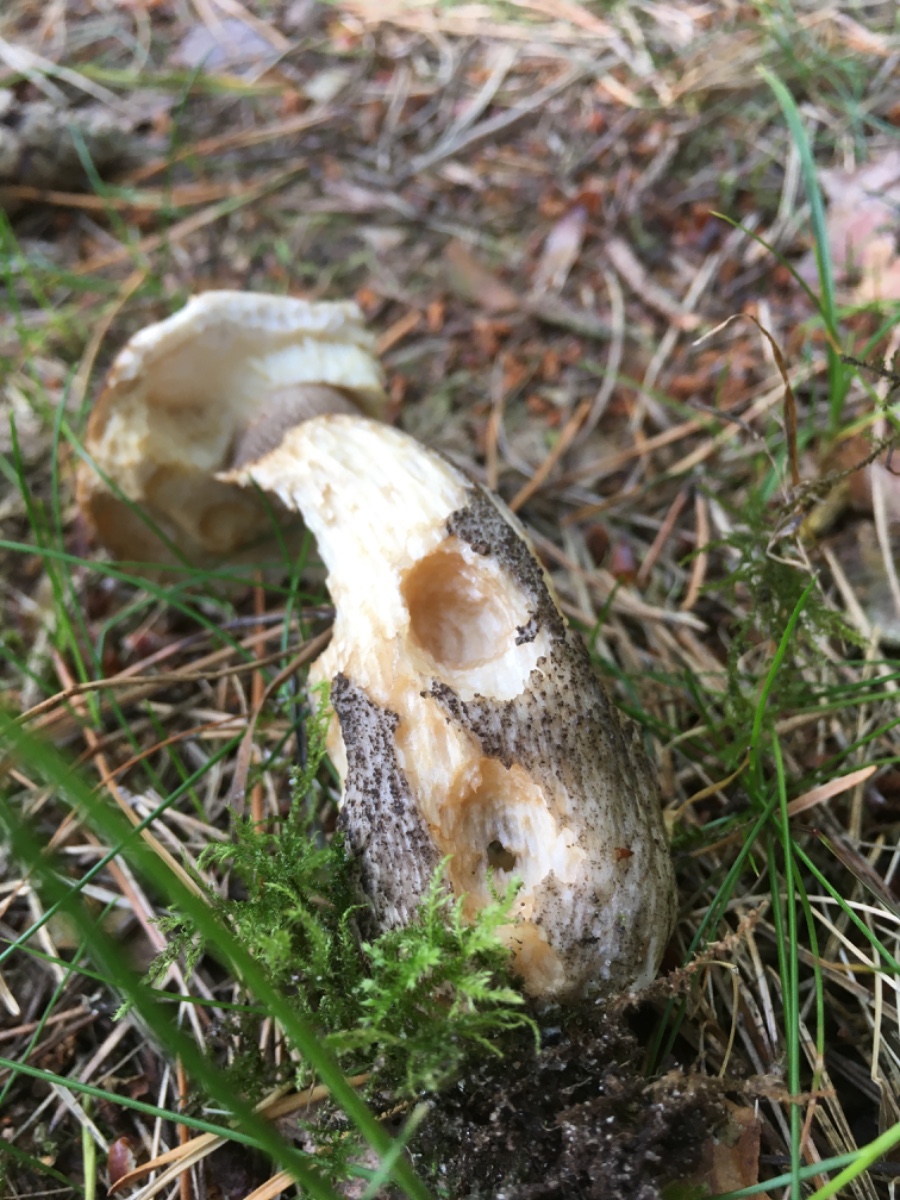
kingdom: Fungi
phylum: Basidiomycota
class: Agaricomycetes
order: Boletales
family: Boletaceae
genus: Leccinum
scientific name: Leccinum scabrum
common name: brun skælrørhat
